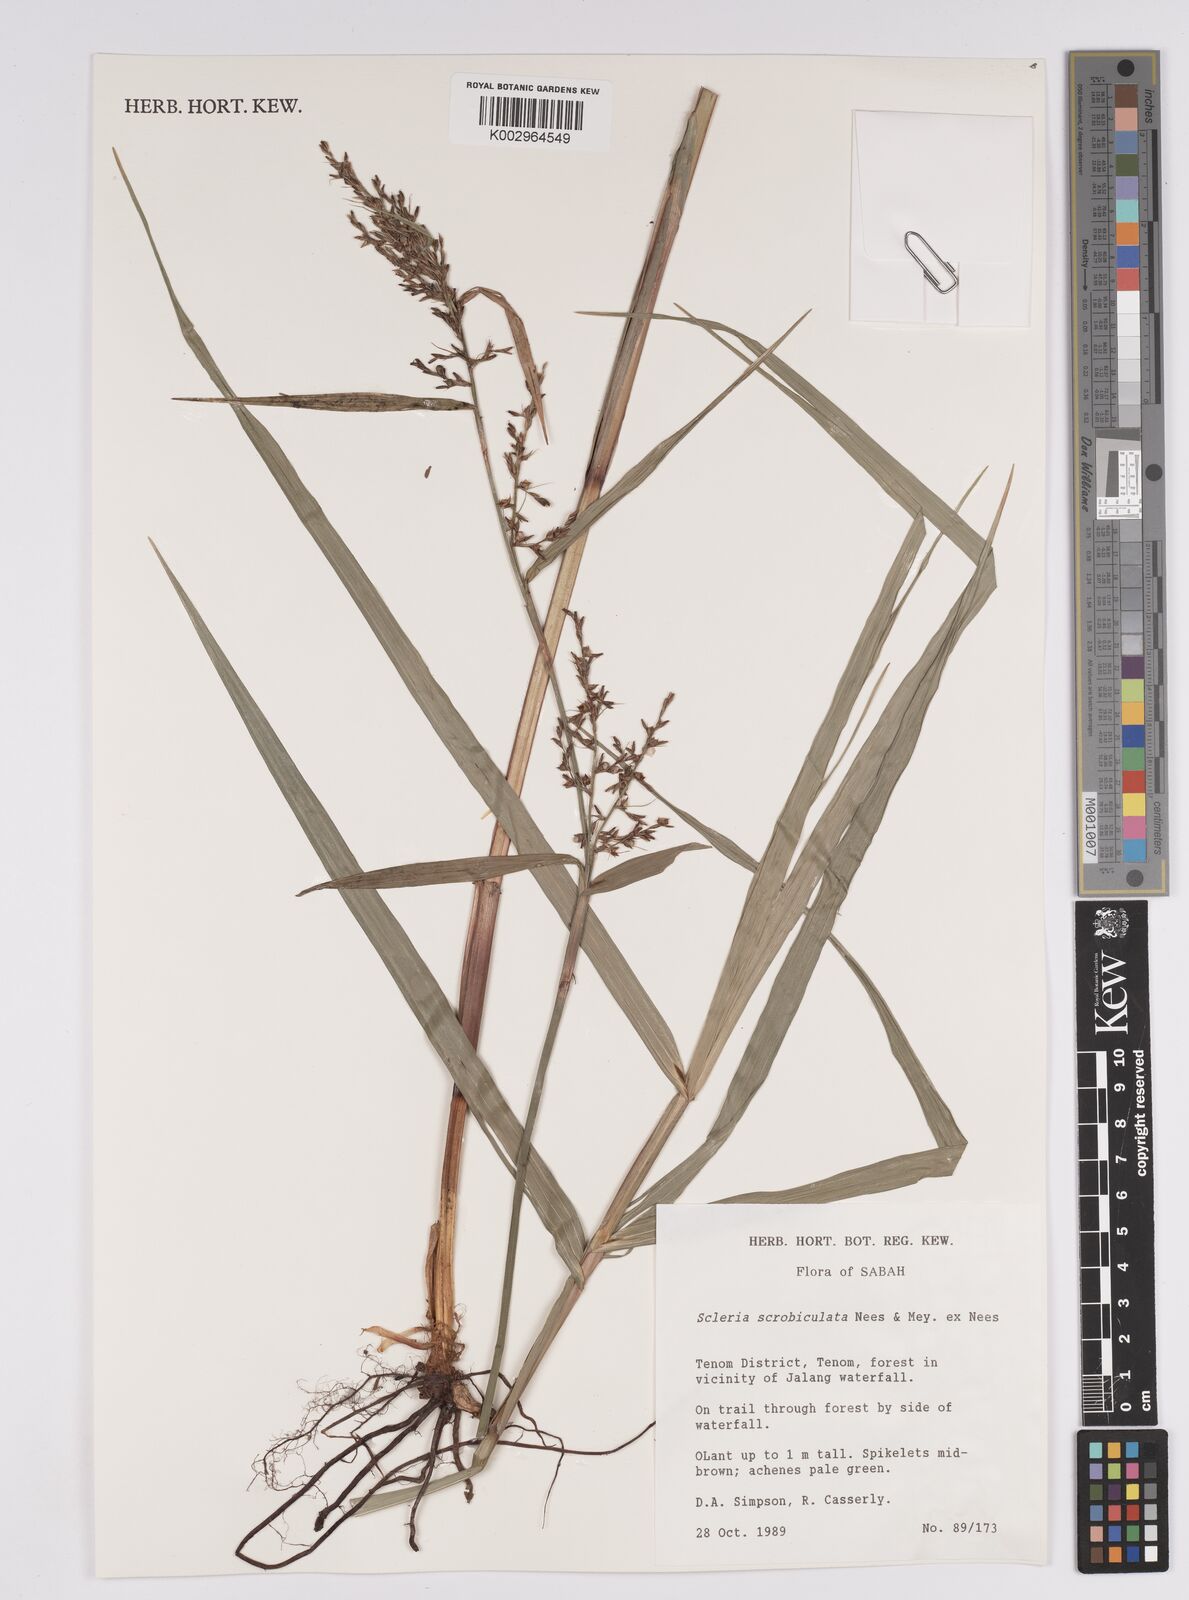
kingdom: Plantae
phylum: Tracheophyta
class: Liliopsida
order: Poales
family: Cyperaceae
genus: Scleria
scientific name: Scleria scrobiculata
